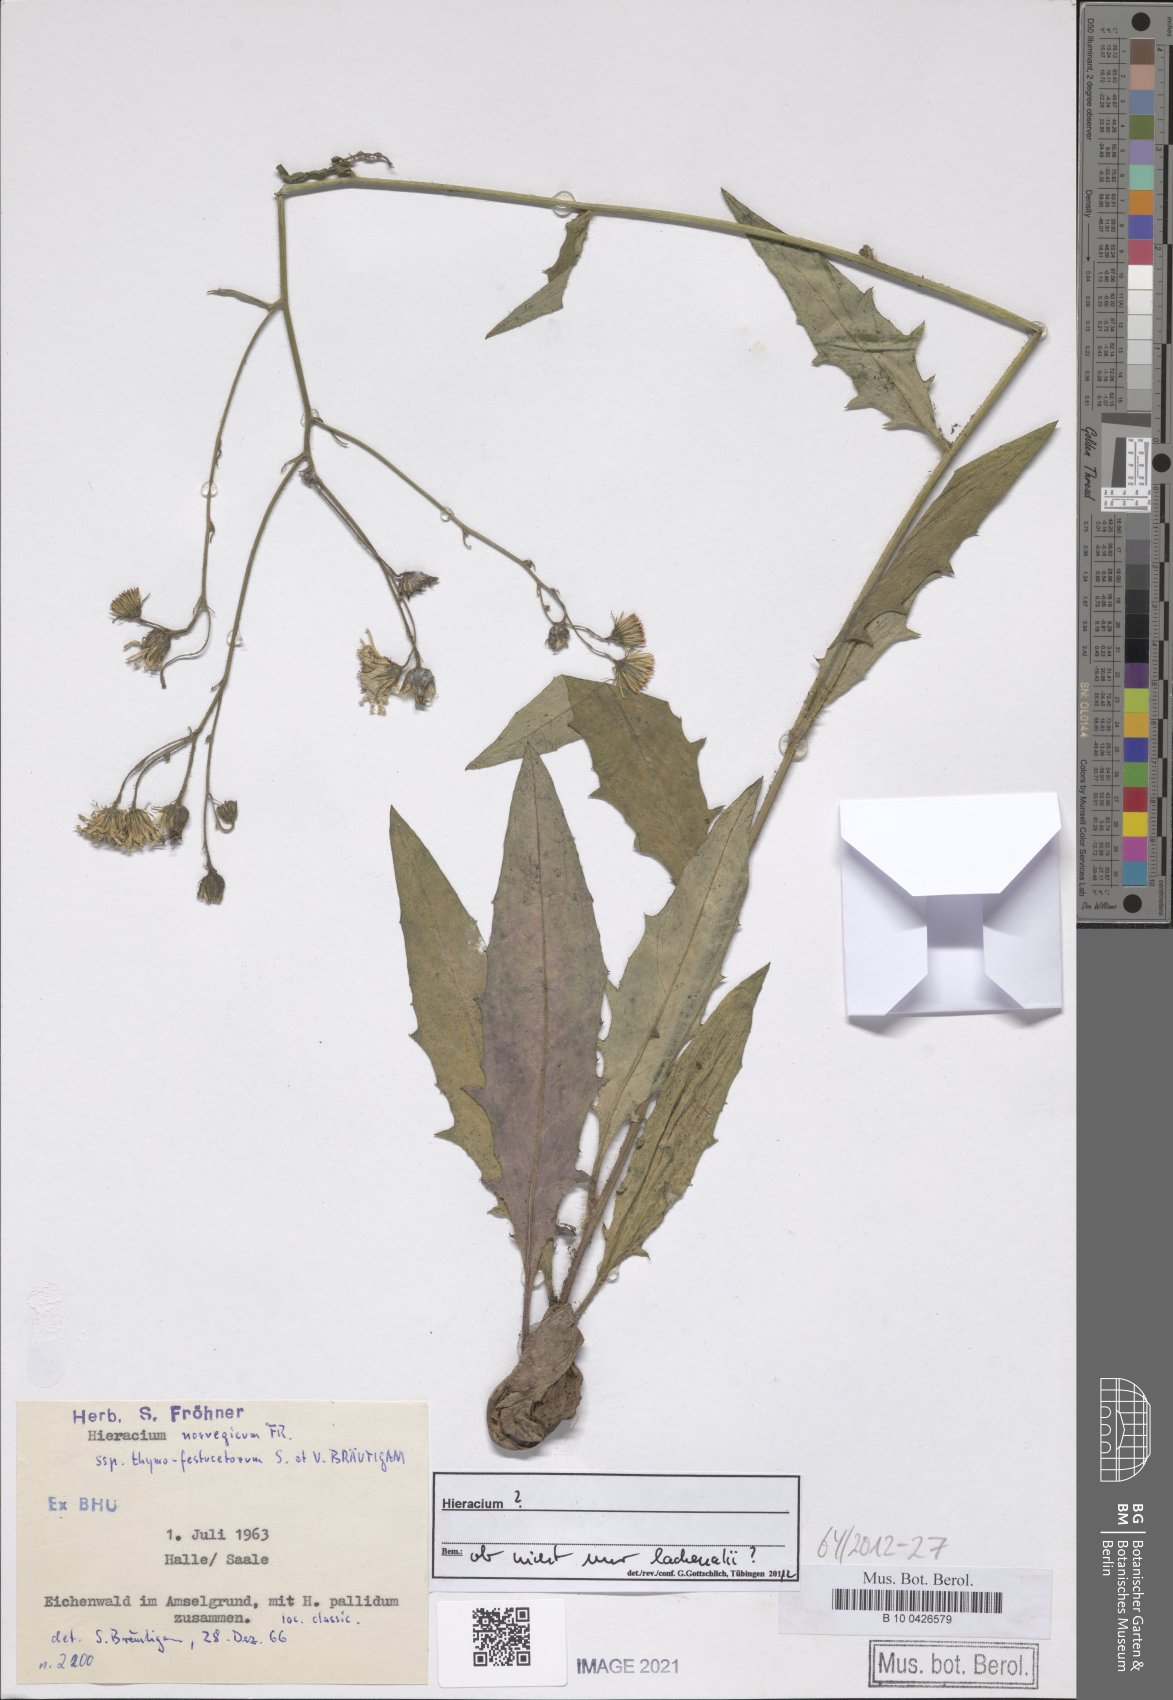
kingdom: Plantae
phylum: Tracheophyta
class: Magnoliopsida
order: Asterales
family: Asteraceae
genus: Hieracium
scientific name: Hieracium norvegicum
